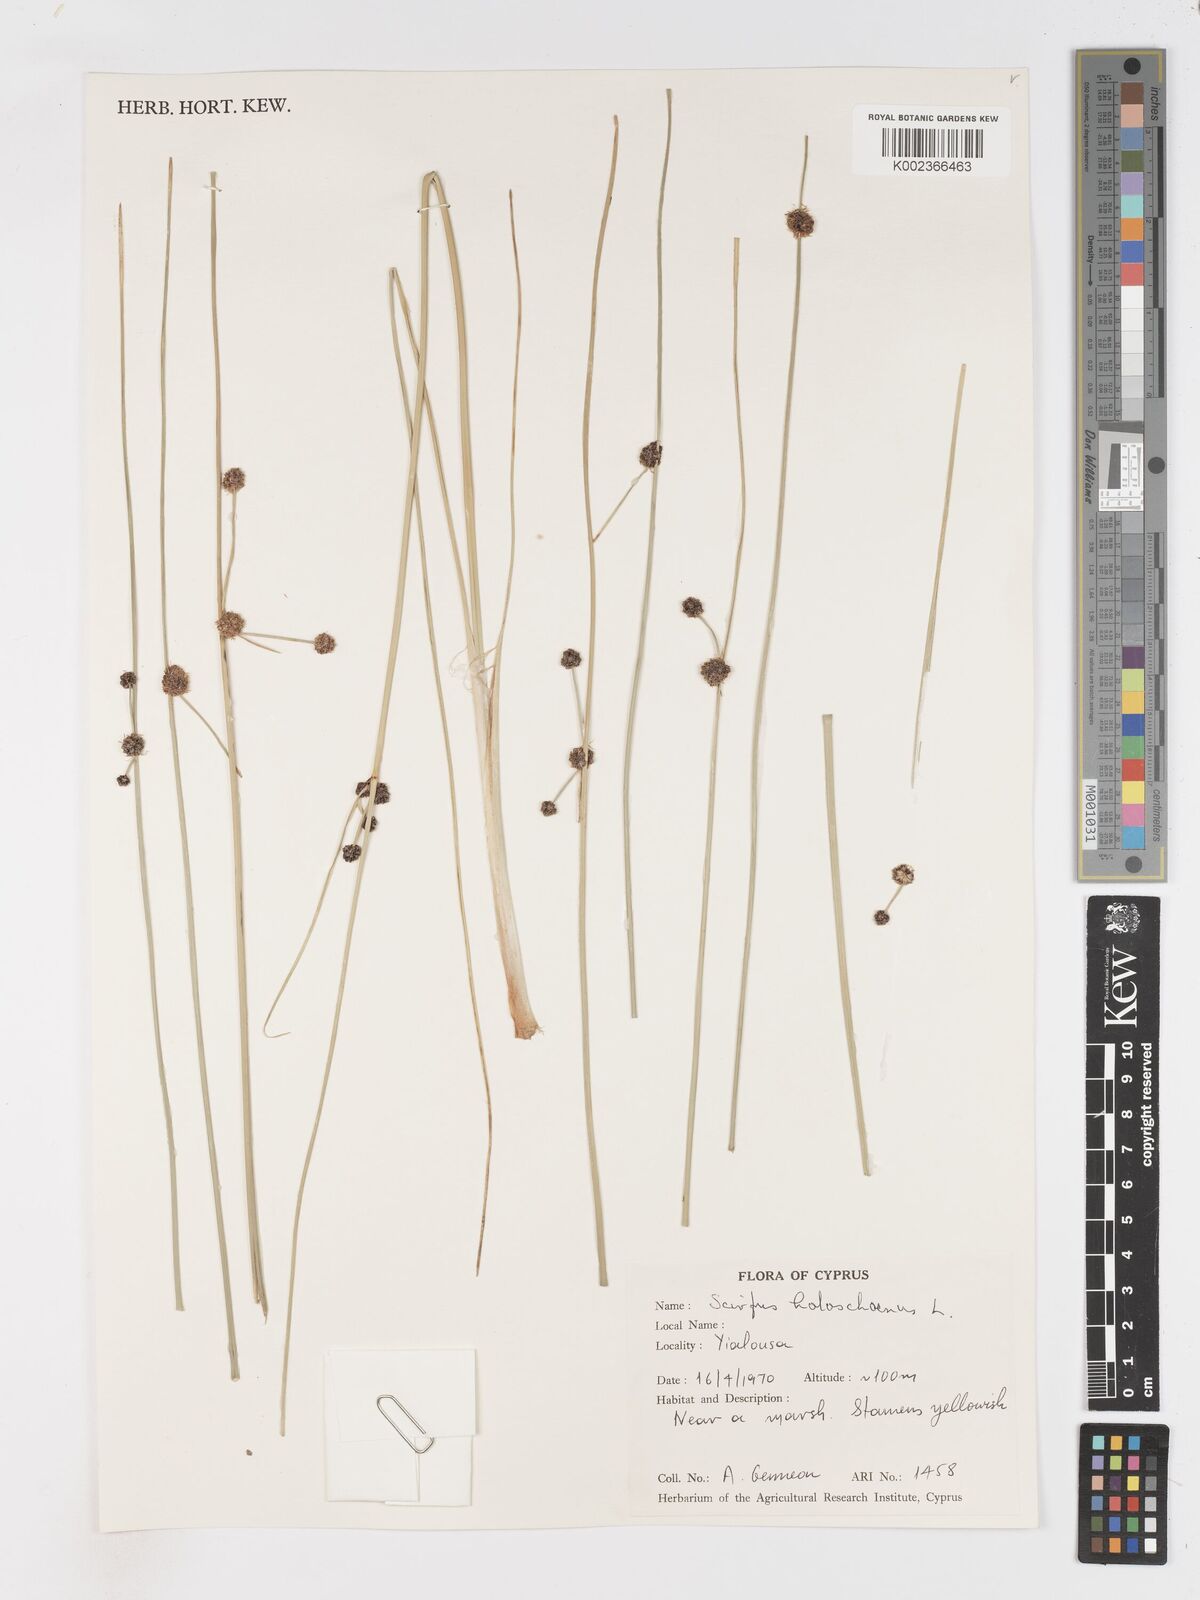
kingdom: Plantae
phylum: Tracheophyta
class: Liliopsida
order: Poales
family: Cyperaceae
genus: Scirpoides
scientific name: Scirpoides holoschoenus
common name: Round-headed club-rush
